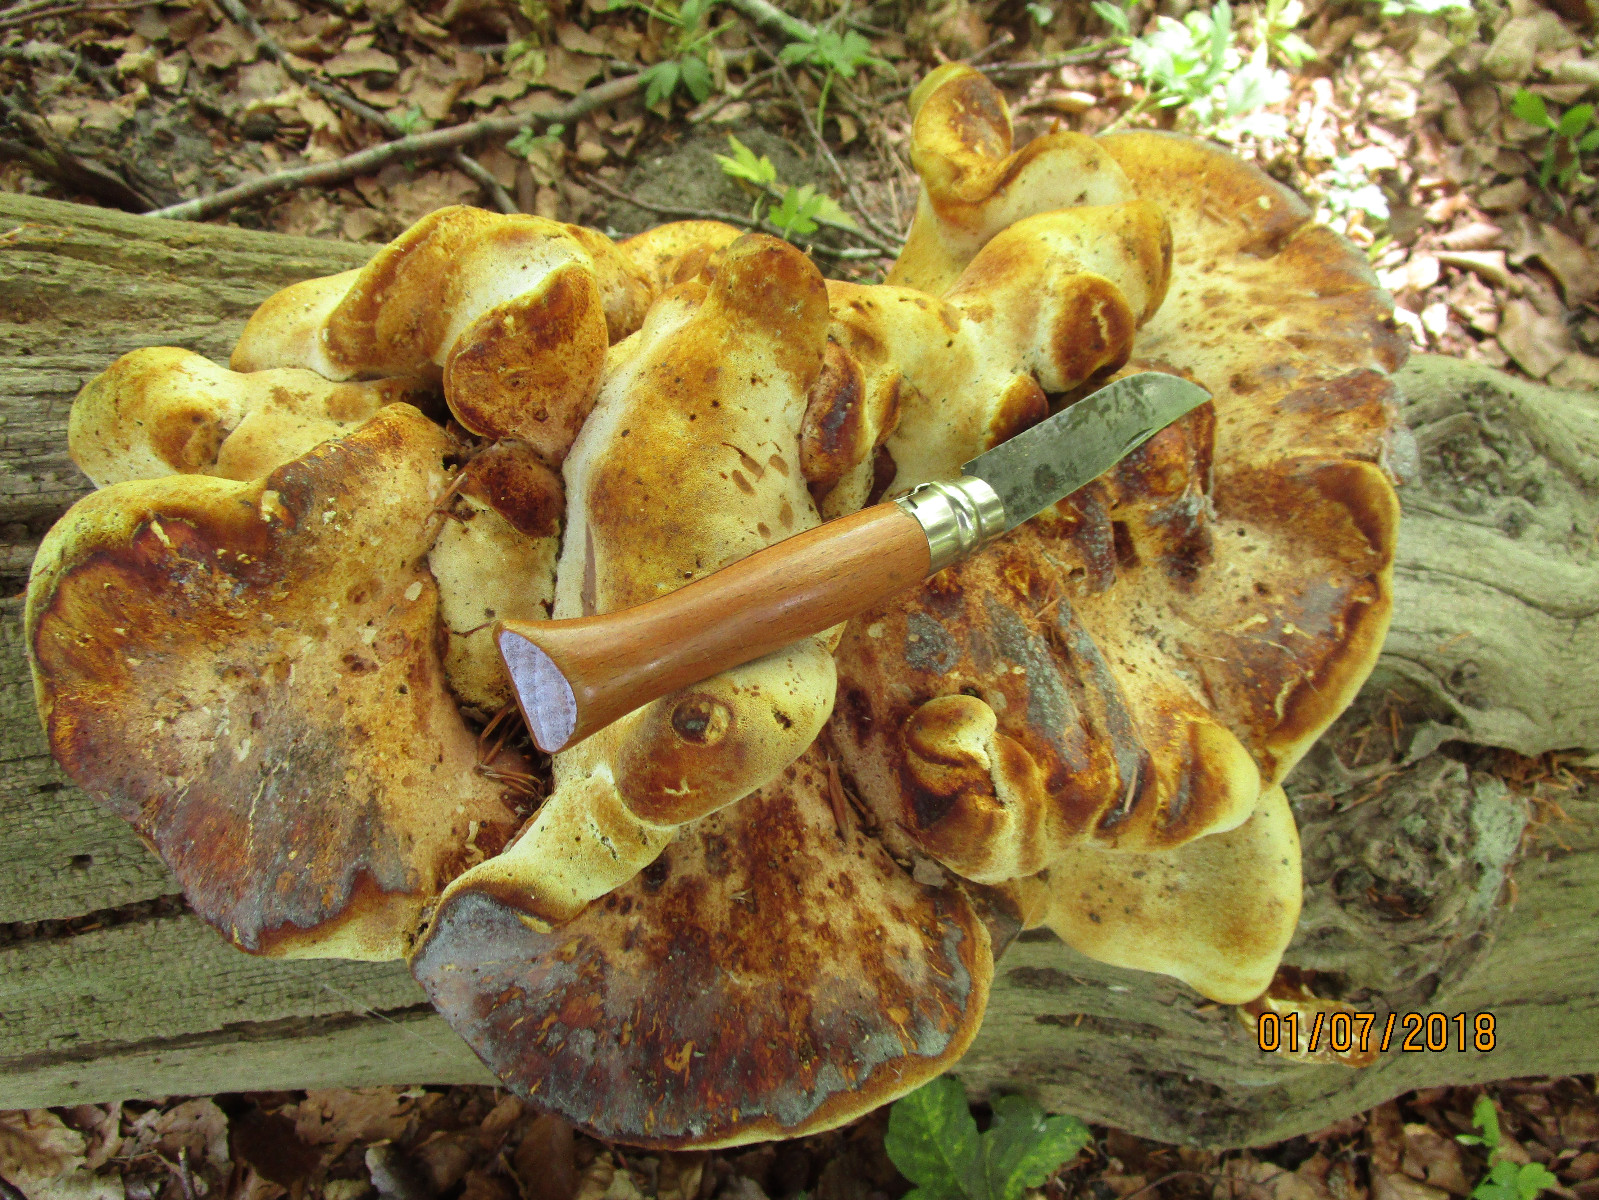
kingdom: Fungi
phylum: Basidiomycota
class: Agaricomycetes
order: Polyporales
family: Fomitopsidaceae
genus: Buglossoporus
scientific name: Buglossoporus quercinus
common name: egetunge
